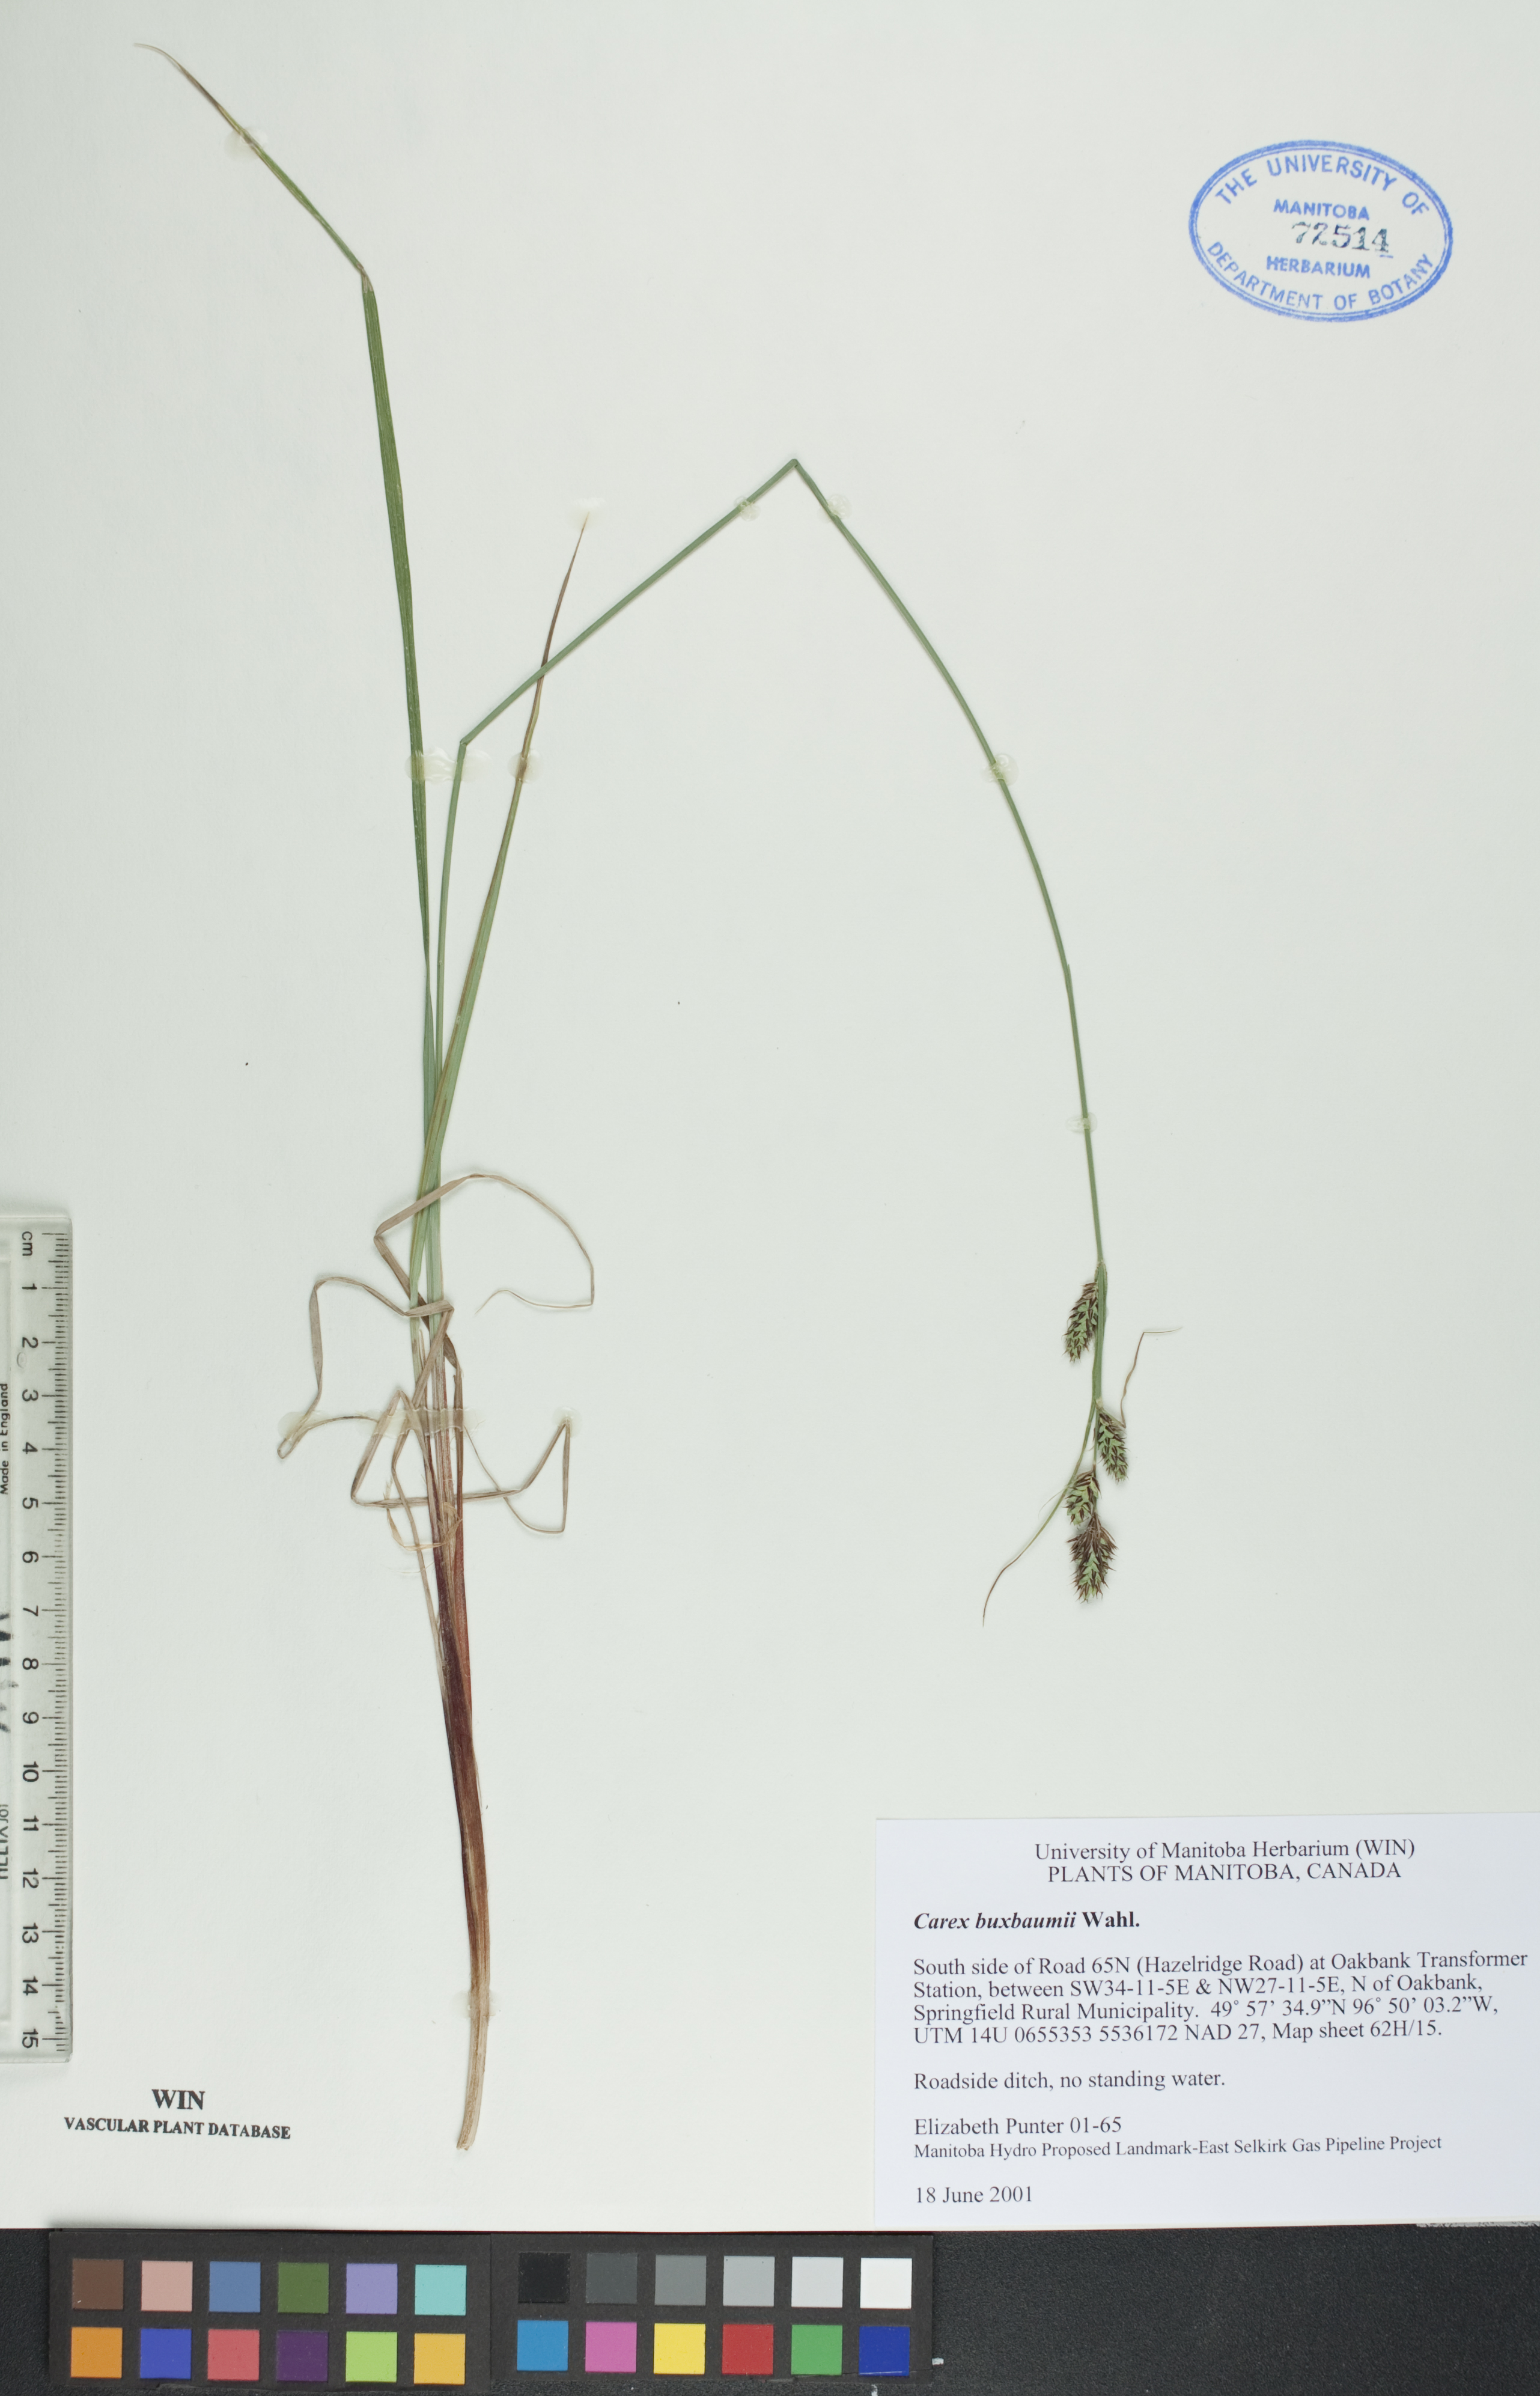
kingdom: Plantae
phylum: Tracheophyta
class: Liliopsida
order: Poales
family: Cyperaceae
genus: Carex
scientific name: Carex buxbaumii
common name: Club sedge
